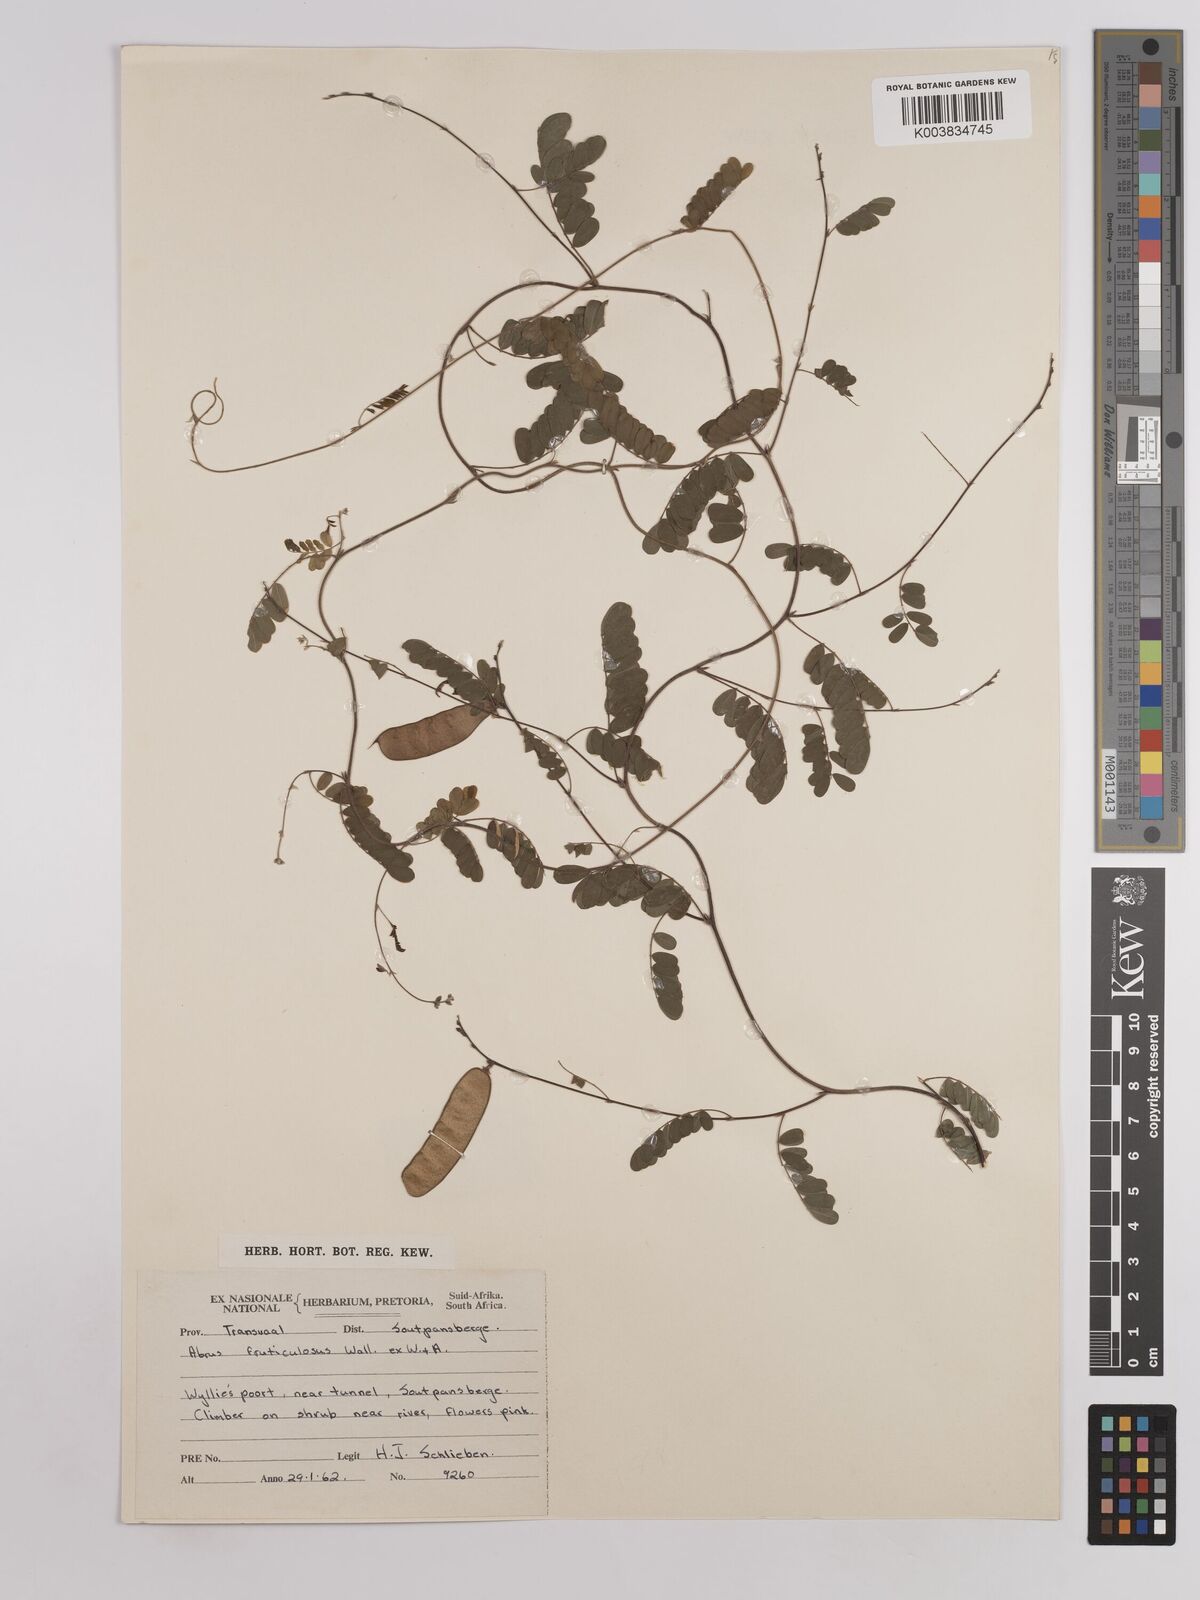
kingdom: Plantae
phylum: Tracheophyta
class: Magnoliopsida
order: Fabales
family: Fabaceae
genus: Abrus
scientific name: Abrus laevigatus
